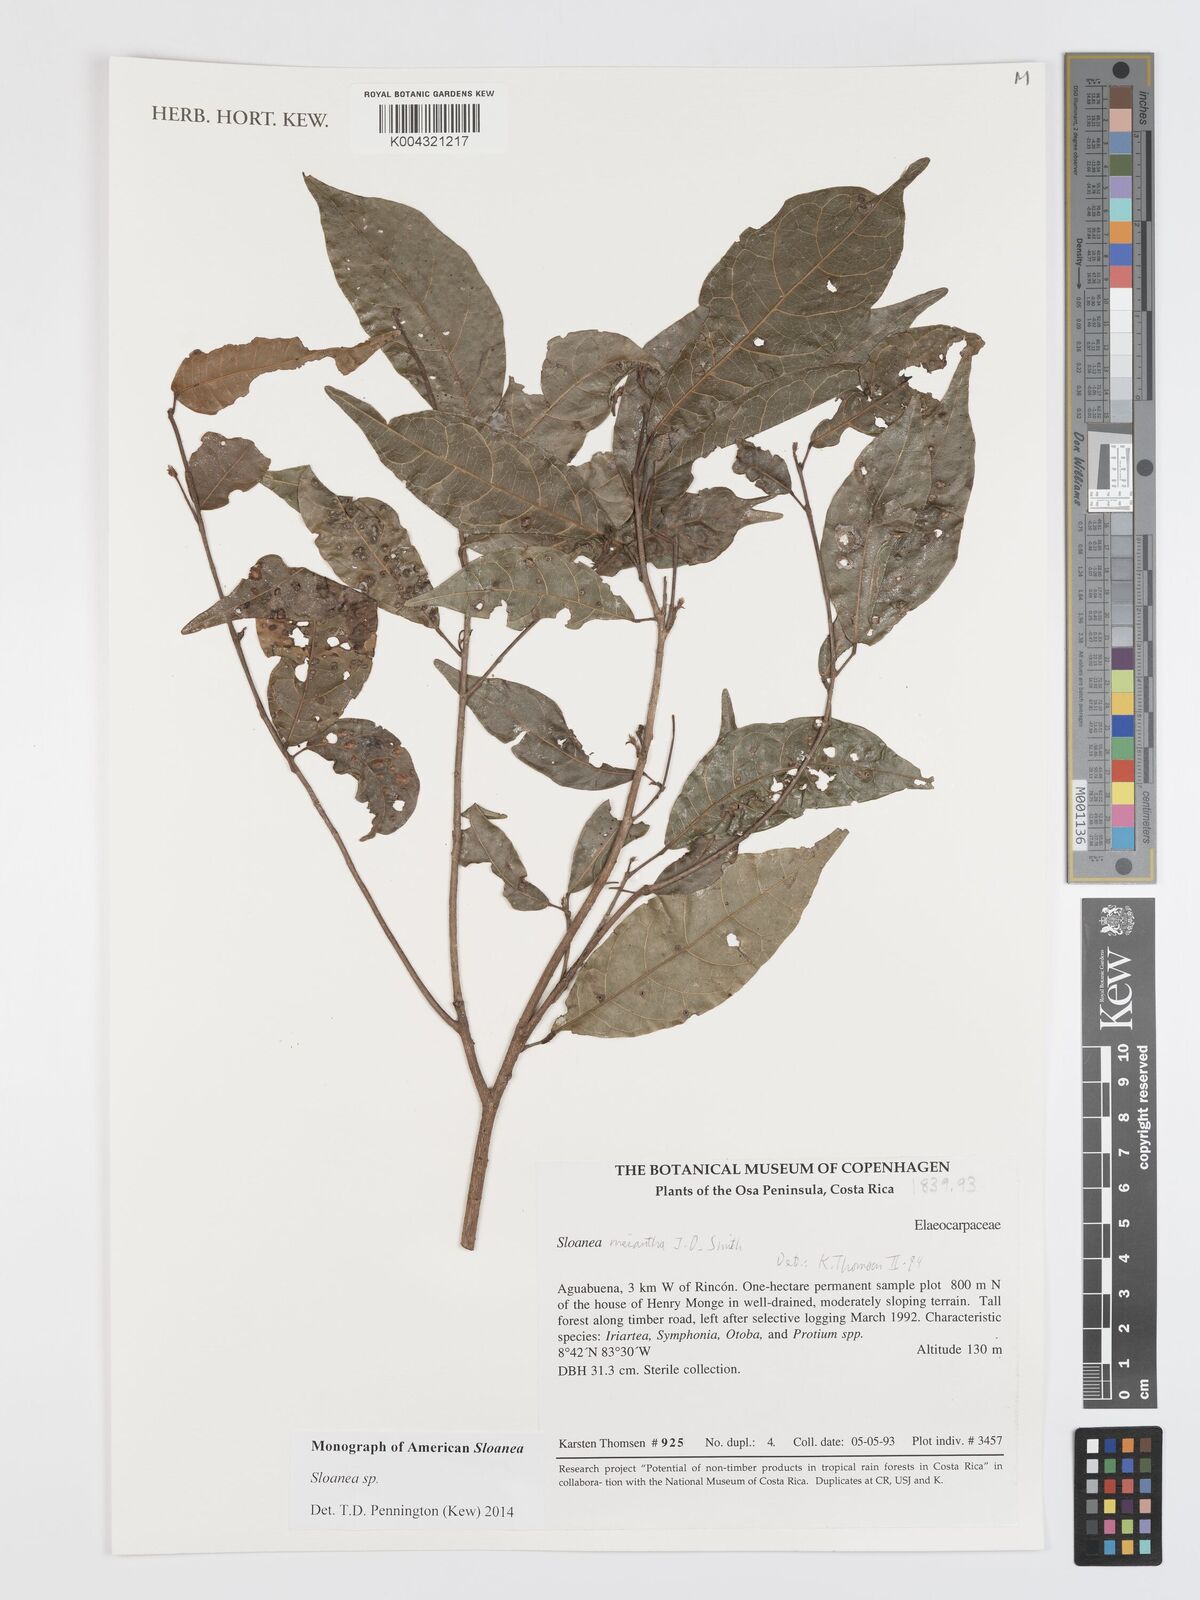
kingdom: Plantae
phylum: Tracheophyta
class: Magnoliopsida
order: Oxalidales
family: Elaeocarpaceae
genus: Sloanea
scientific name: Sloanea
